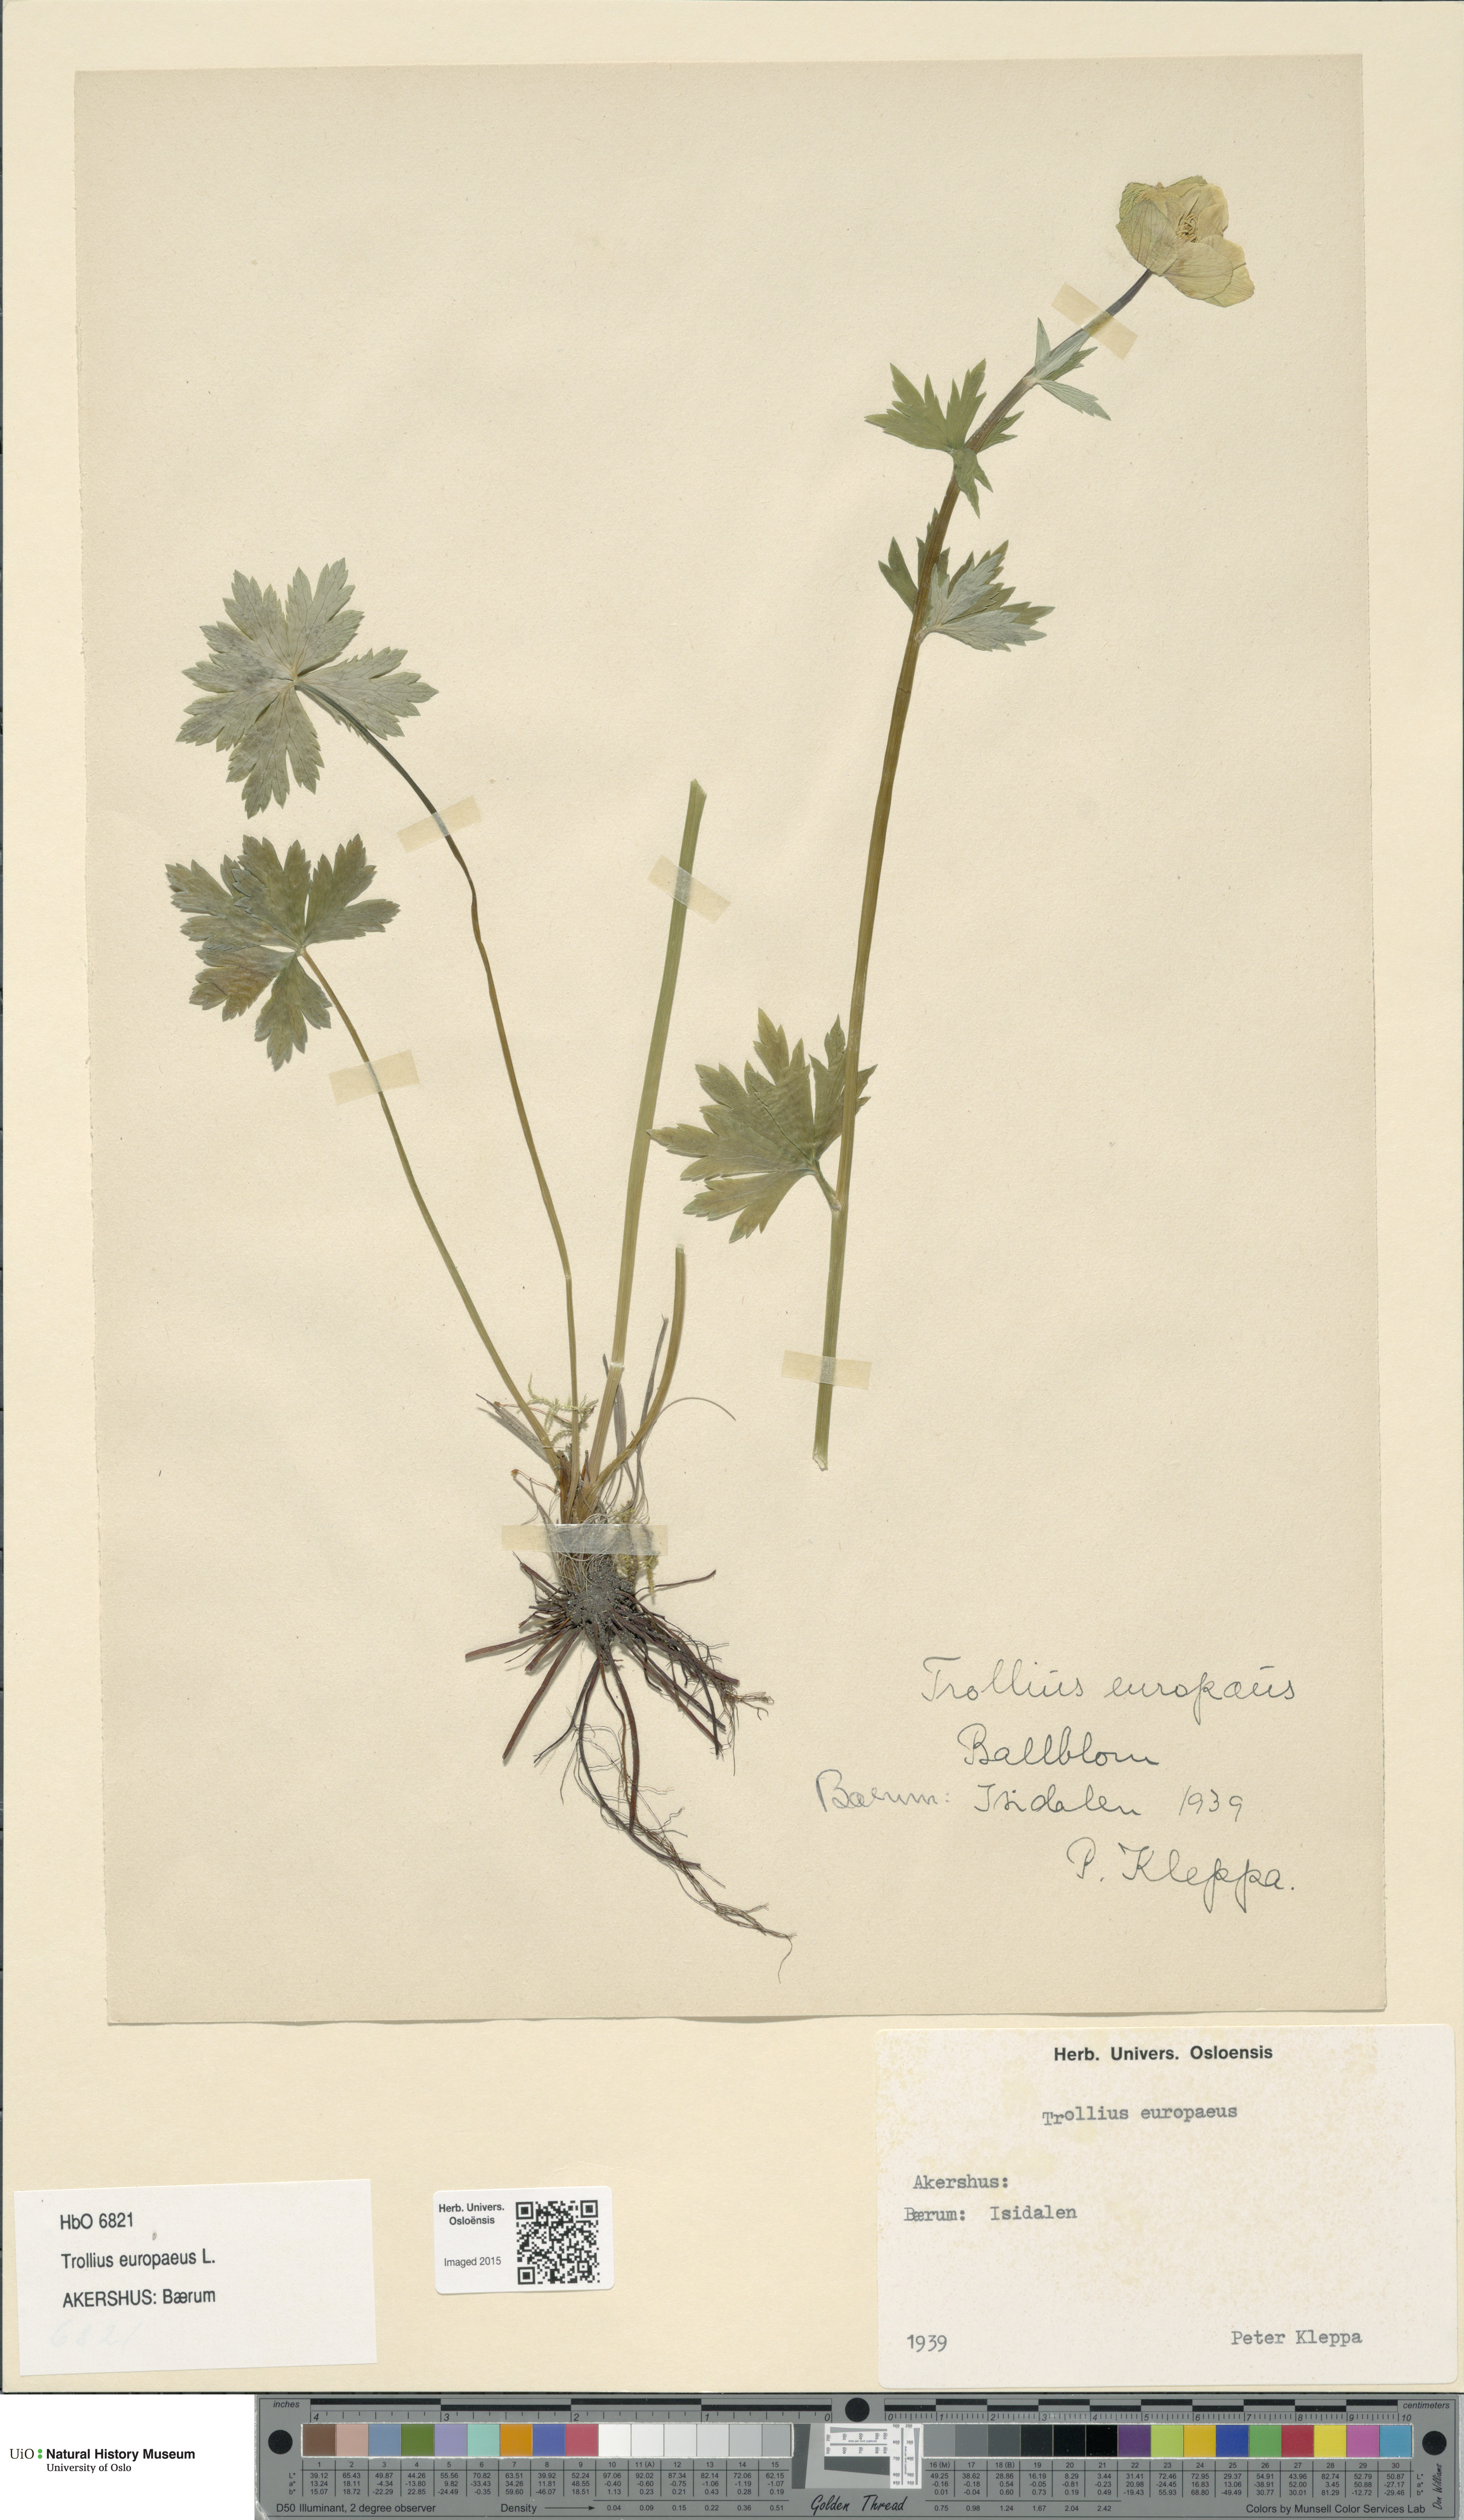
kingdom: Plantae
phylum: Tracheophyta
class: Magnoliopsida
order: Ranunculales
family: Ranunculaceae
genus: Trollius
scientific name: Trollius europaeus
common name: European globeflower
